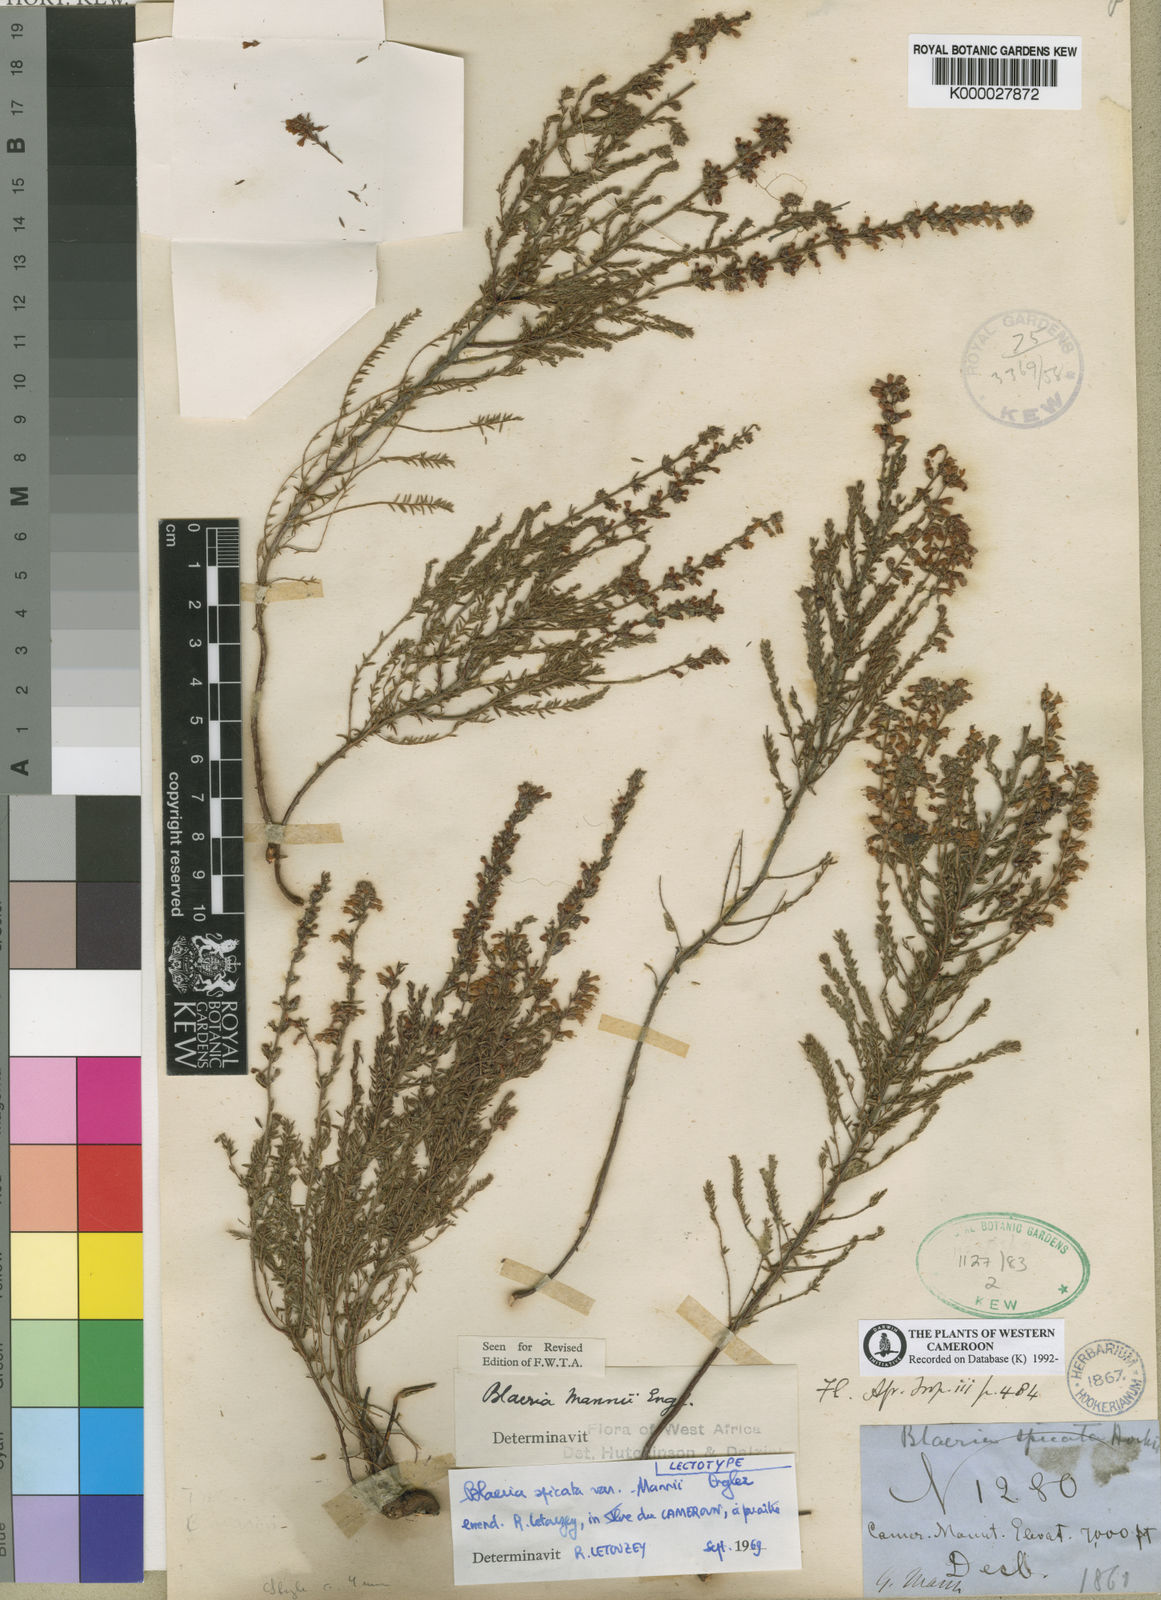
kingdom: Plantae
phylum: Tracheophyta
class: Magnoliopsida
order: Ericales
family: Ericaceae
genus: Erica
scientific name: Erica silvatica
